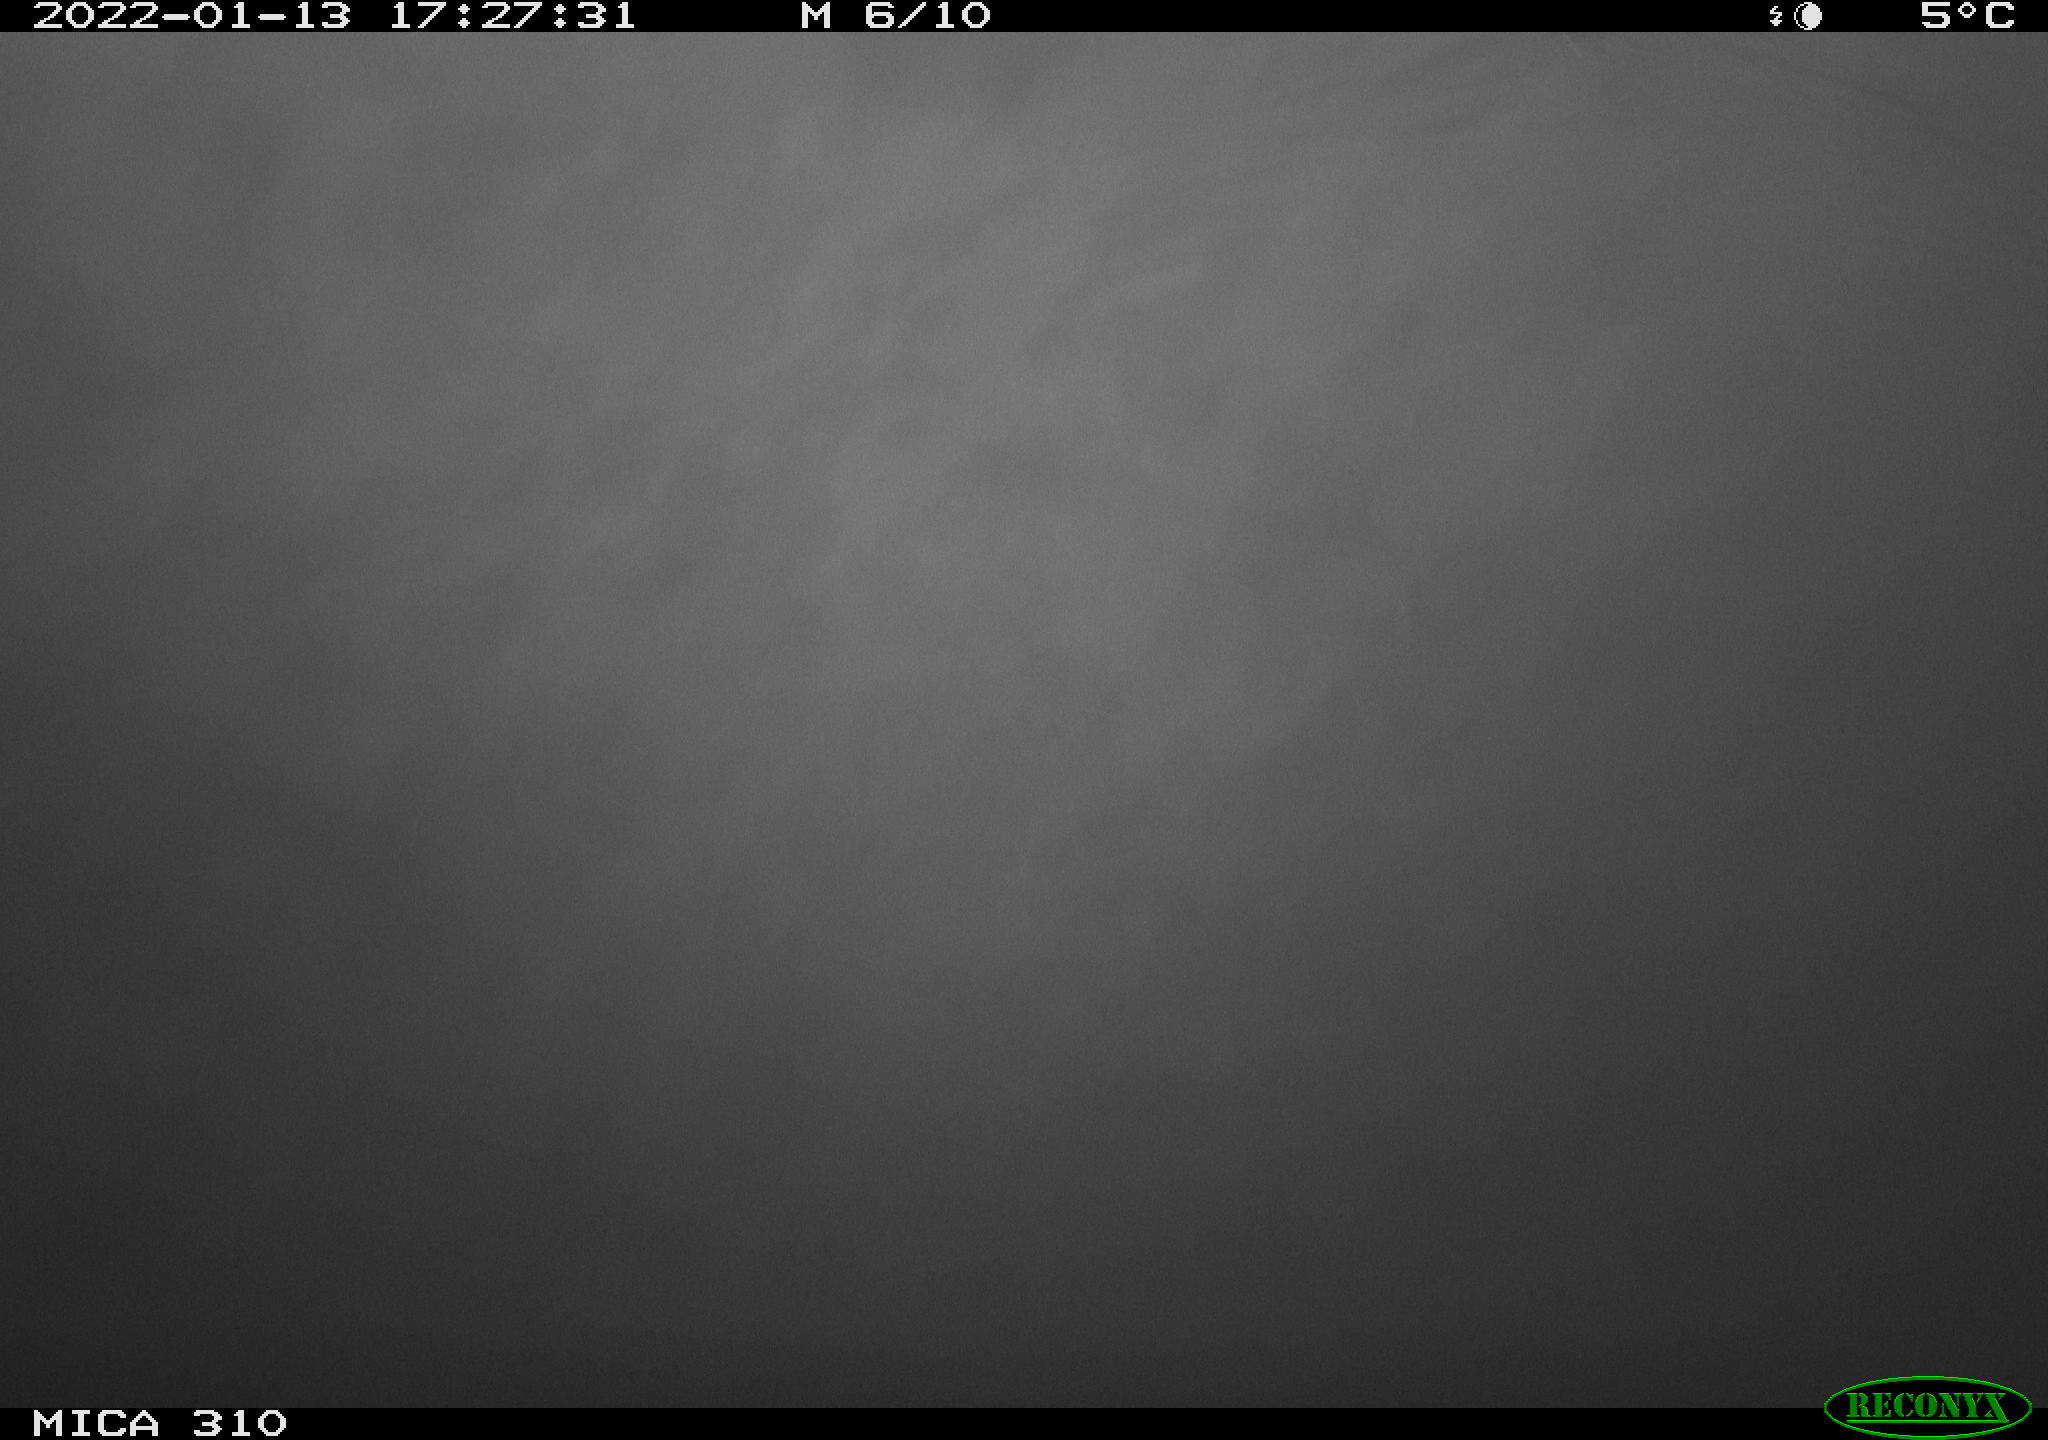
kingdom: Animalia
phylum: Chordata
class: Aves
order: Gruiformes
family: Rallidae
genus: Fulica
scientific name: Fulica atra
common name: Eurasian coot
